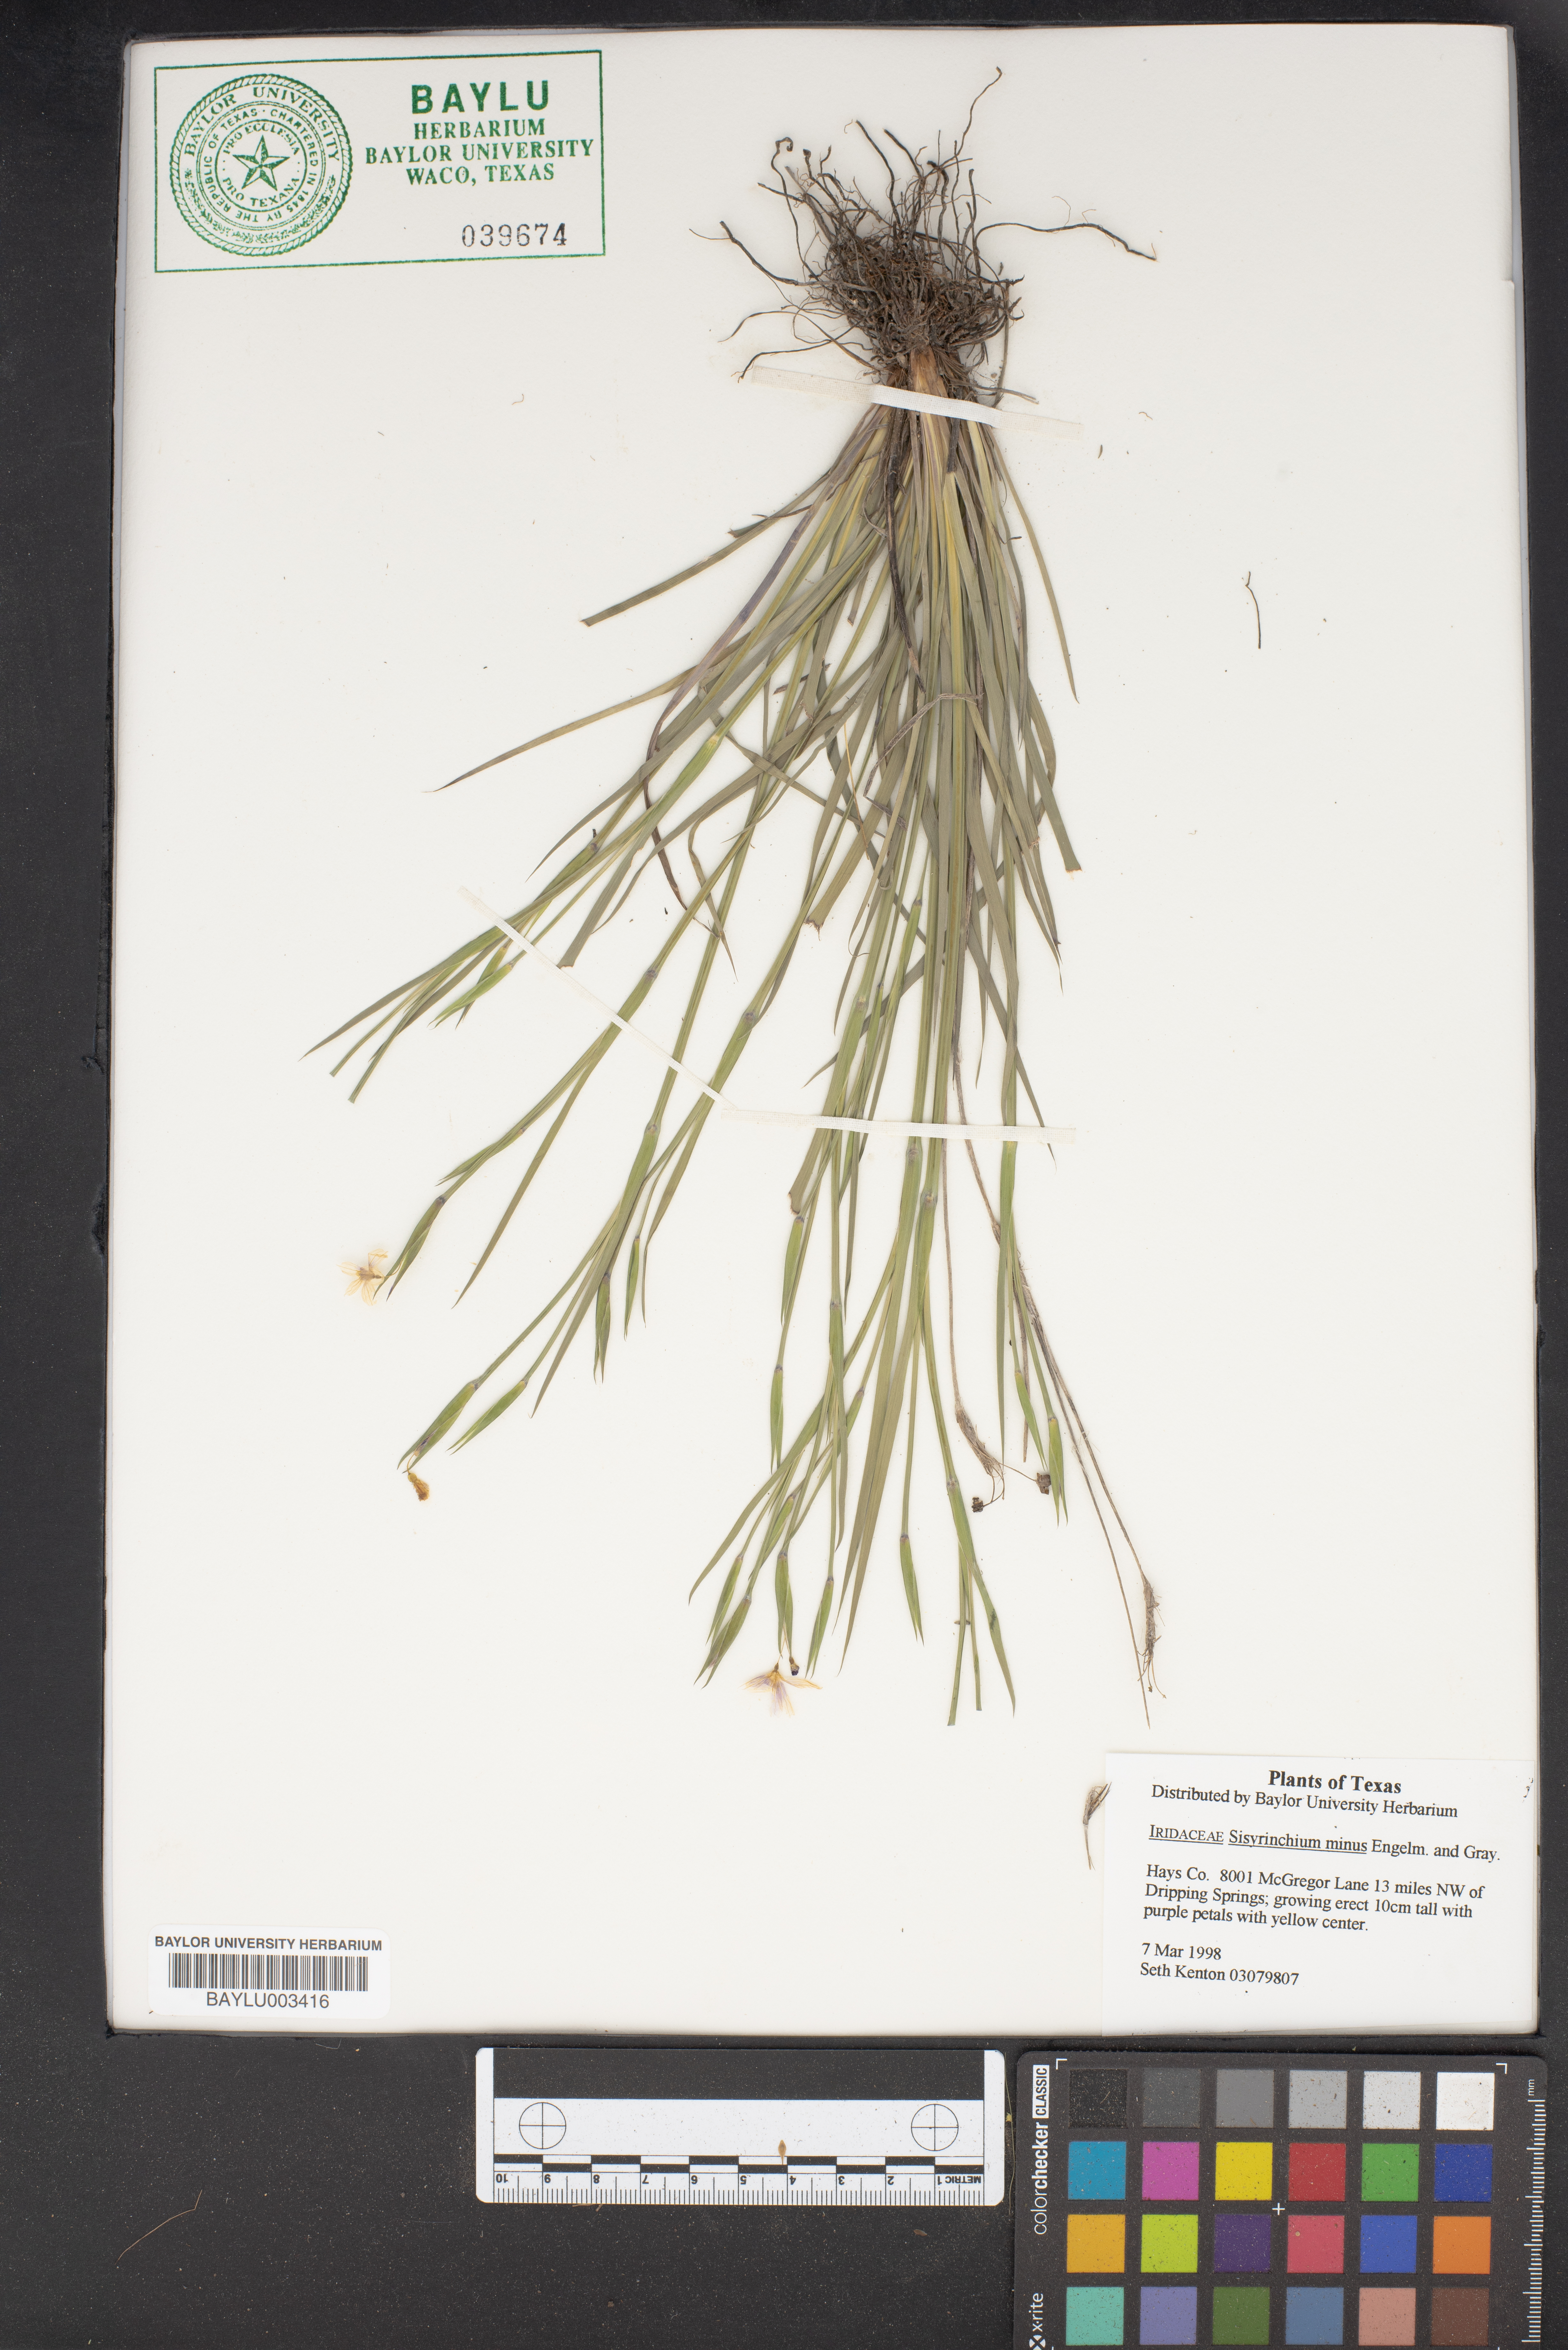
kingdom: Plantae
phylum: Tracheophyta
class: Liliopsida
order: Asparagales
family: Iridaceae
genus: Sisyrinchium
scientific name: Sisyrinchium minus
